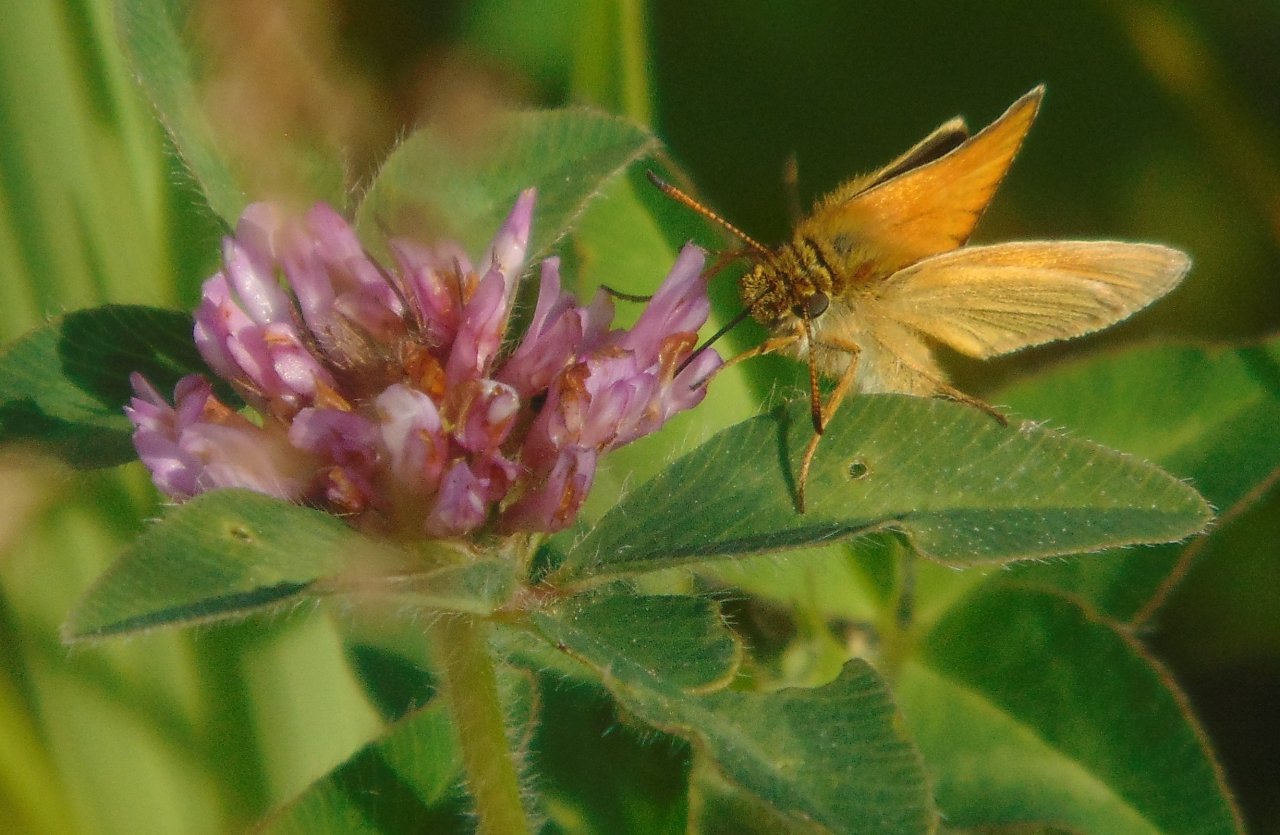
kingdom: Animalia
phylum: Arthropoda
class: Insecta
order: Lepidoptera
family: Hesperiidae
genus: Thymelicus
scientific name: Thymelicus lineola
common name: European Skipper
